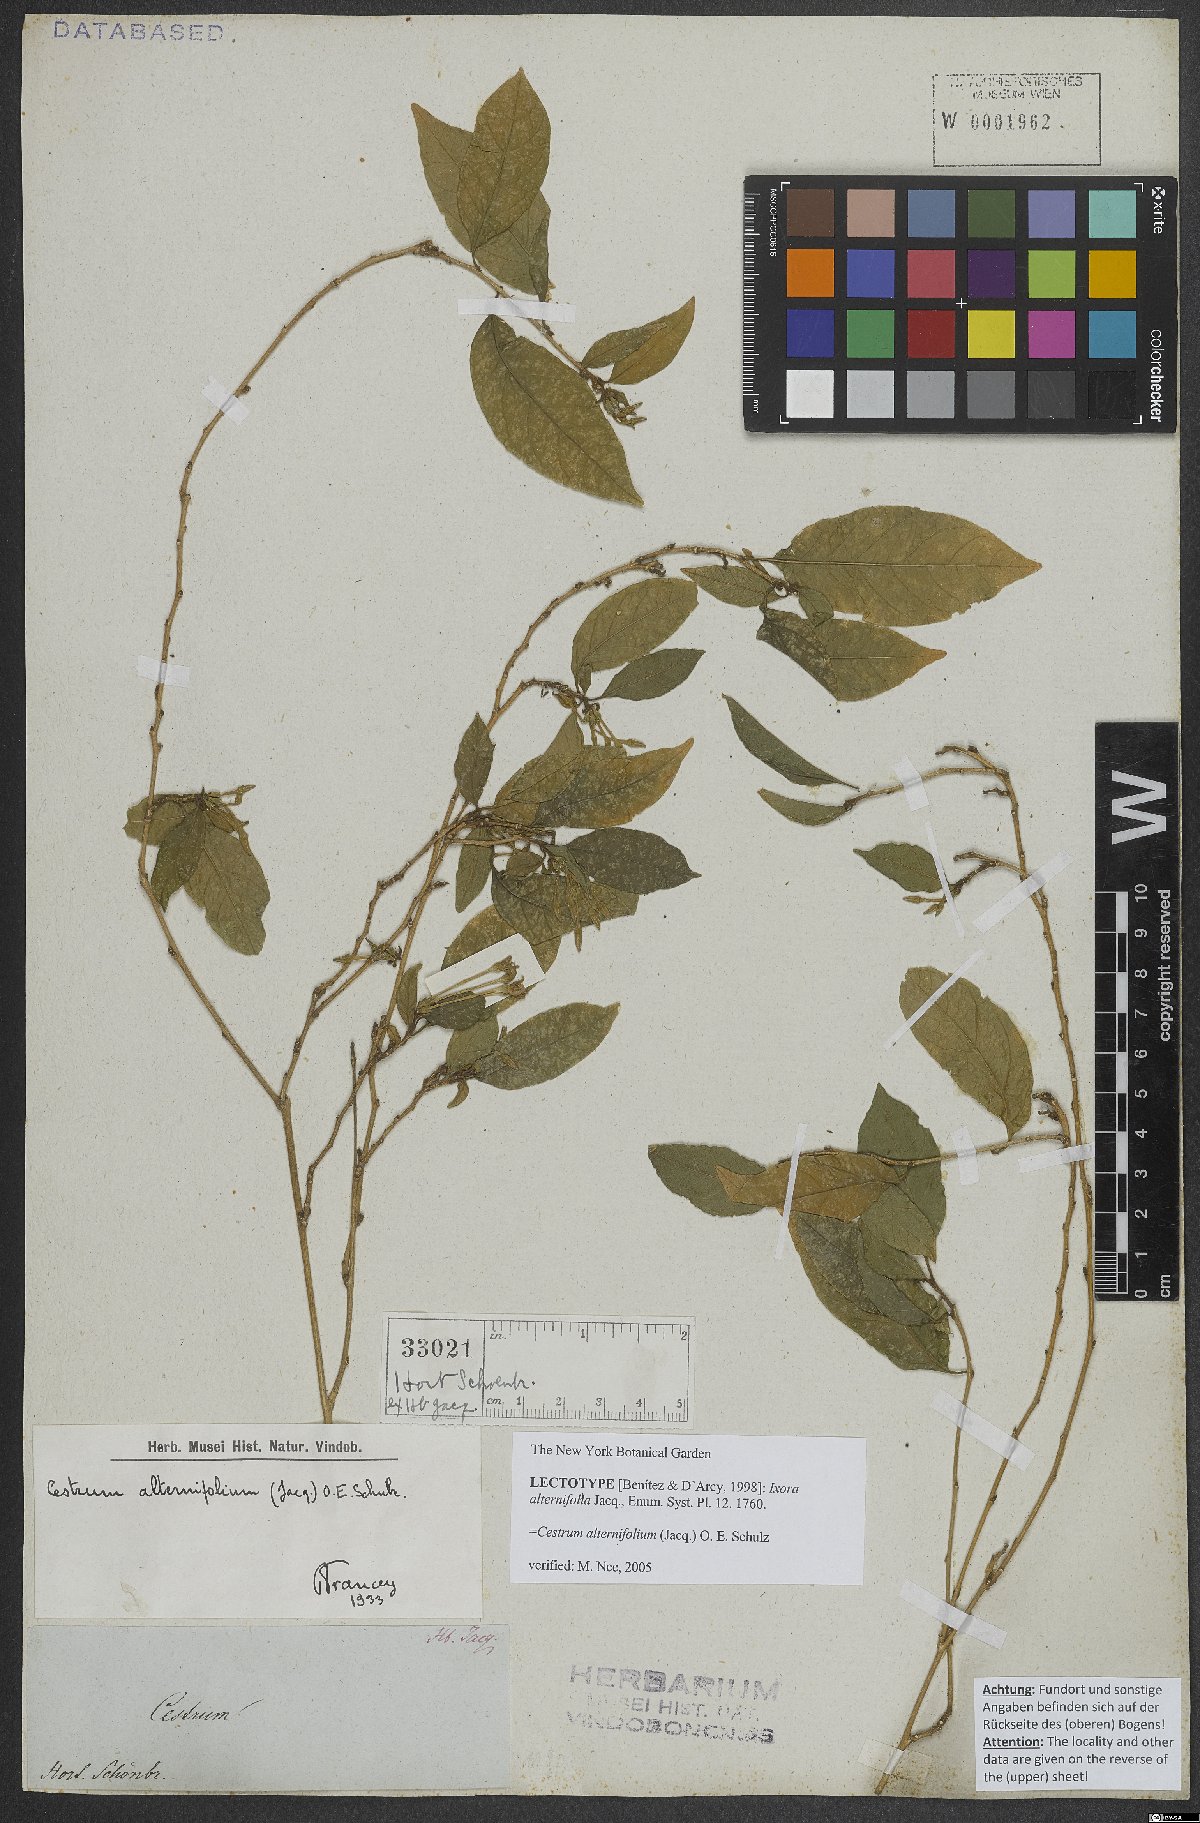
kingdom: Plantae
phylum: Tracheophyta
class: Magnoliopsida
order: Solanales
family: Solanaceae
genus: Cestrum
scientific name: Cestrum alternifolium
